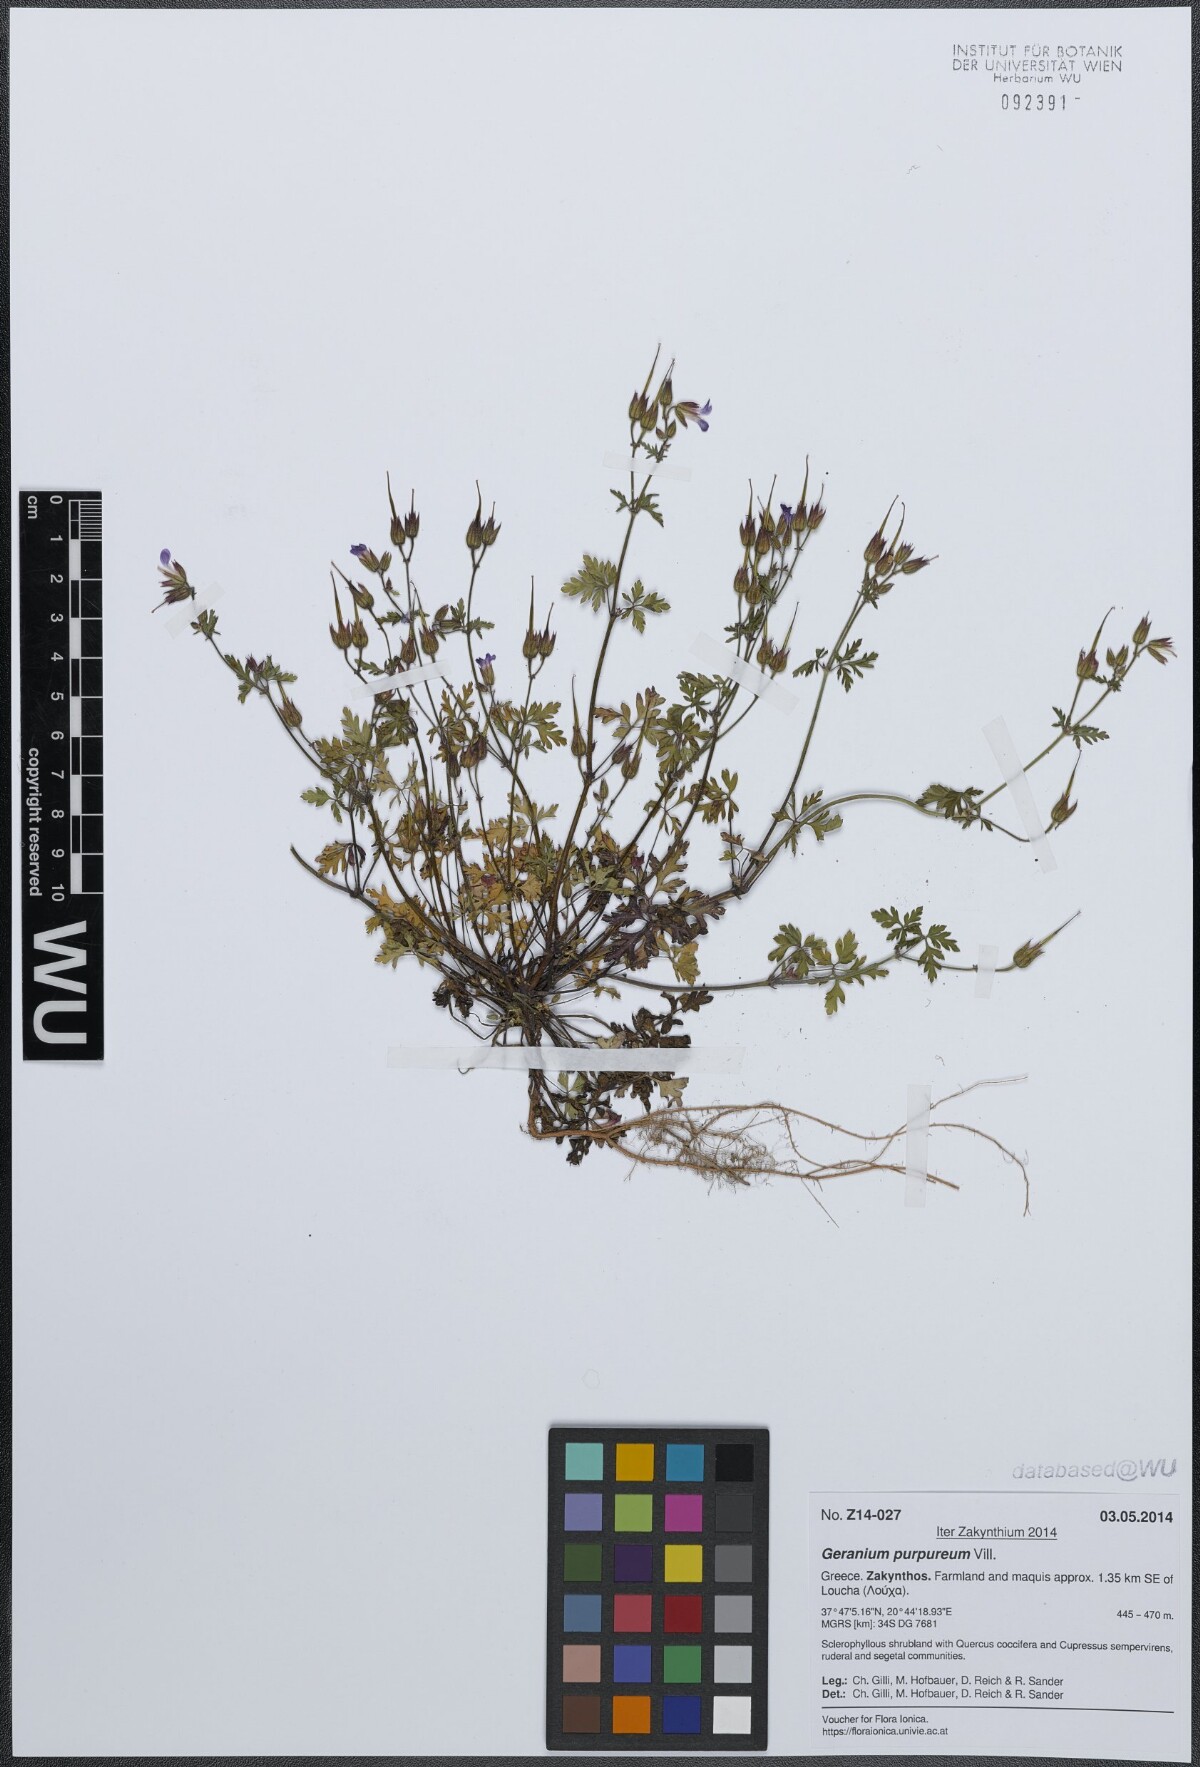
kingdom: Plantae
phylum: Tracheophyta
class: Magnoliopsida
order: Geraniales
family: Geraniaceae
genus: Geranium
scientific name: Geranium purpureum
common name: Little-robin
